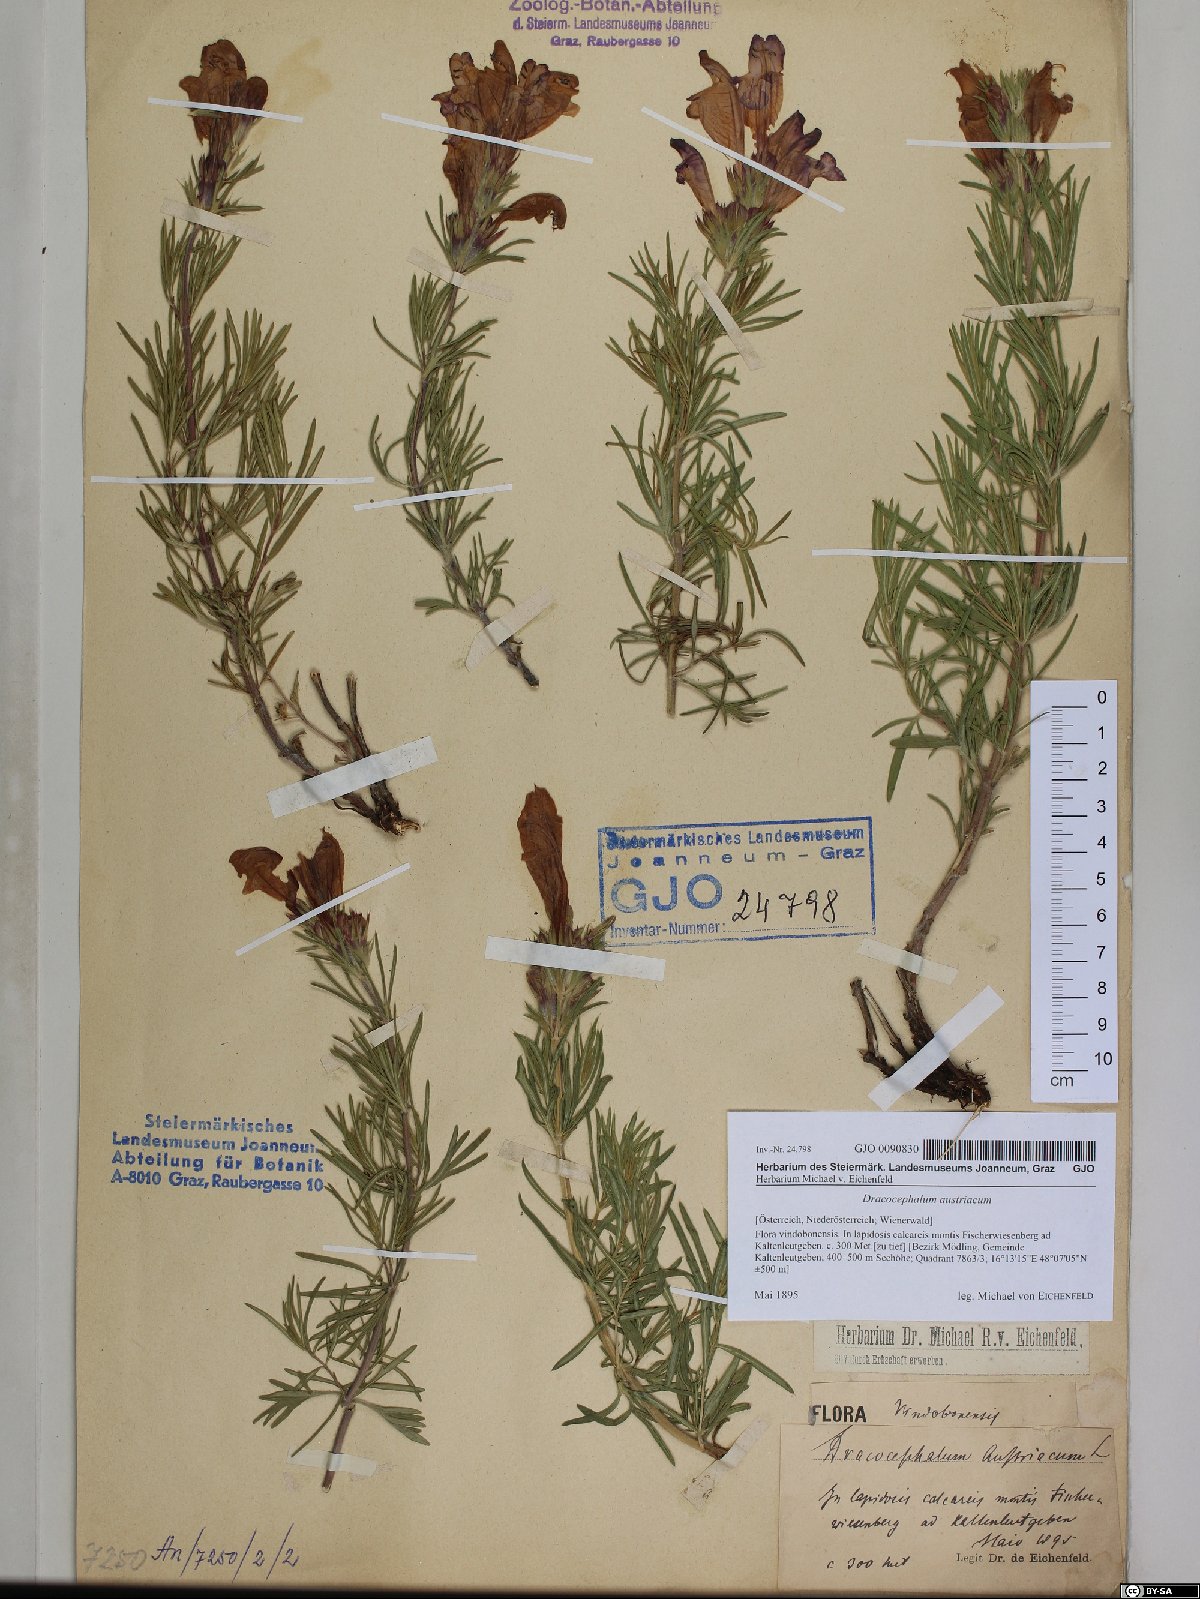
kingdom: Plantae
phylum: Tracheophyta
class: Magnoliopsida
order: Lamiales
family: Lamiaceae
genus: Dracocephalum
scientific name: Dracocephalum austriacum
